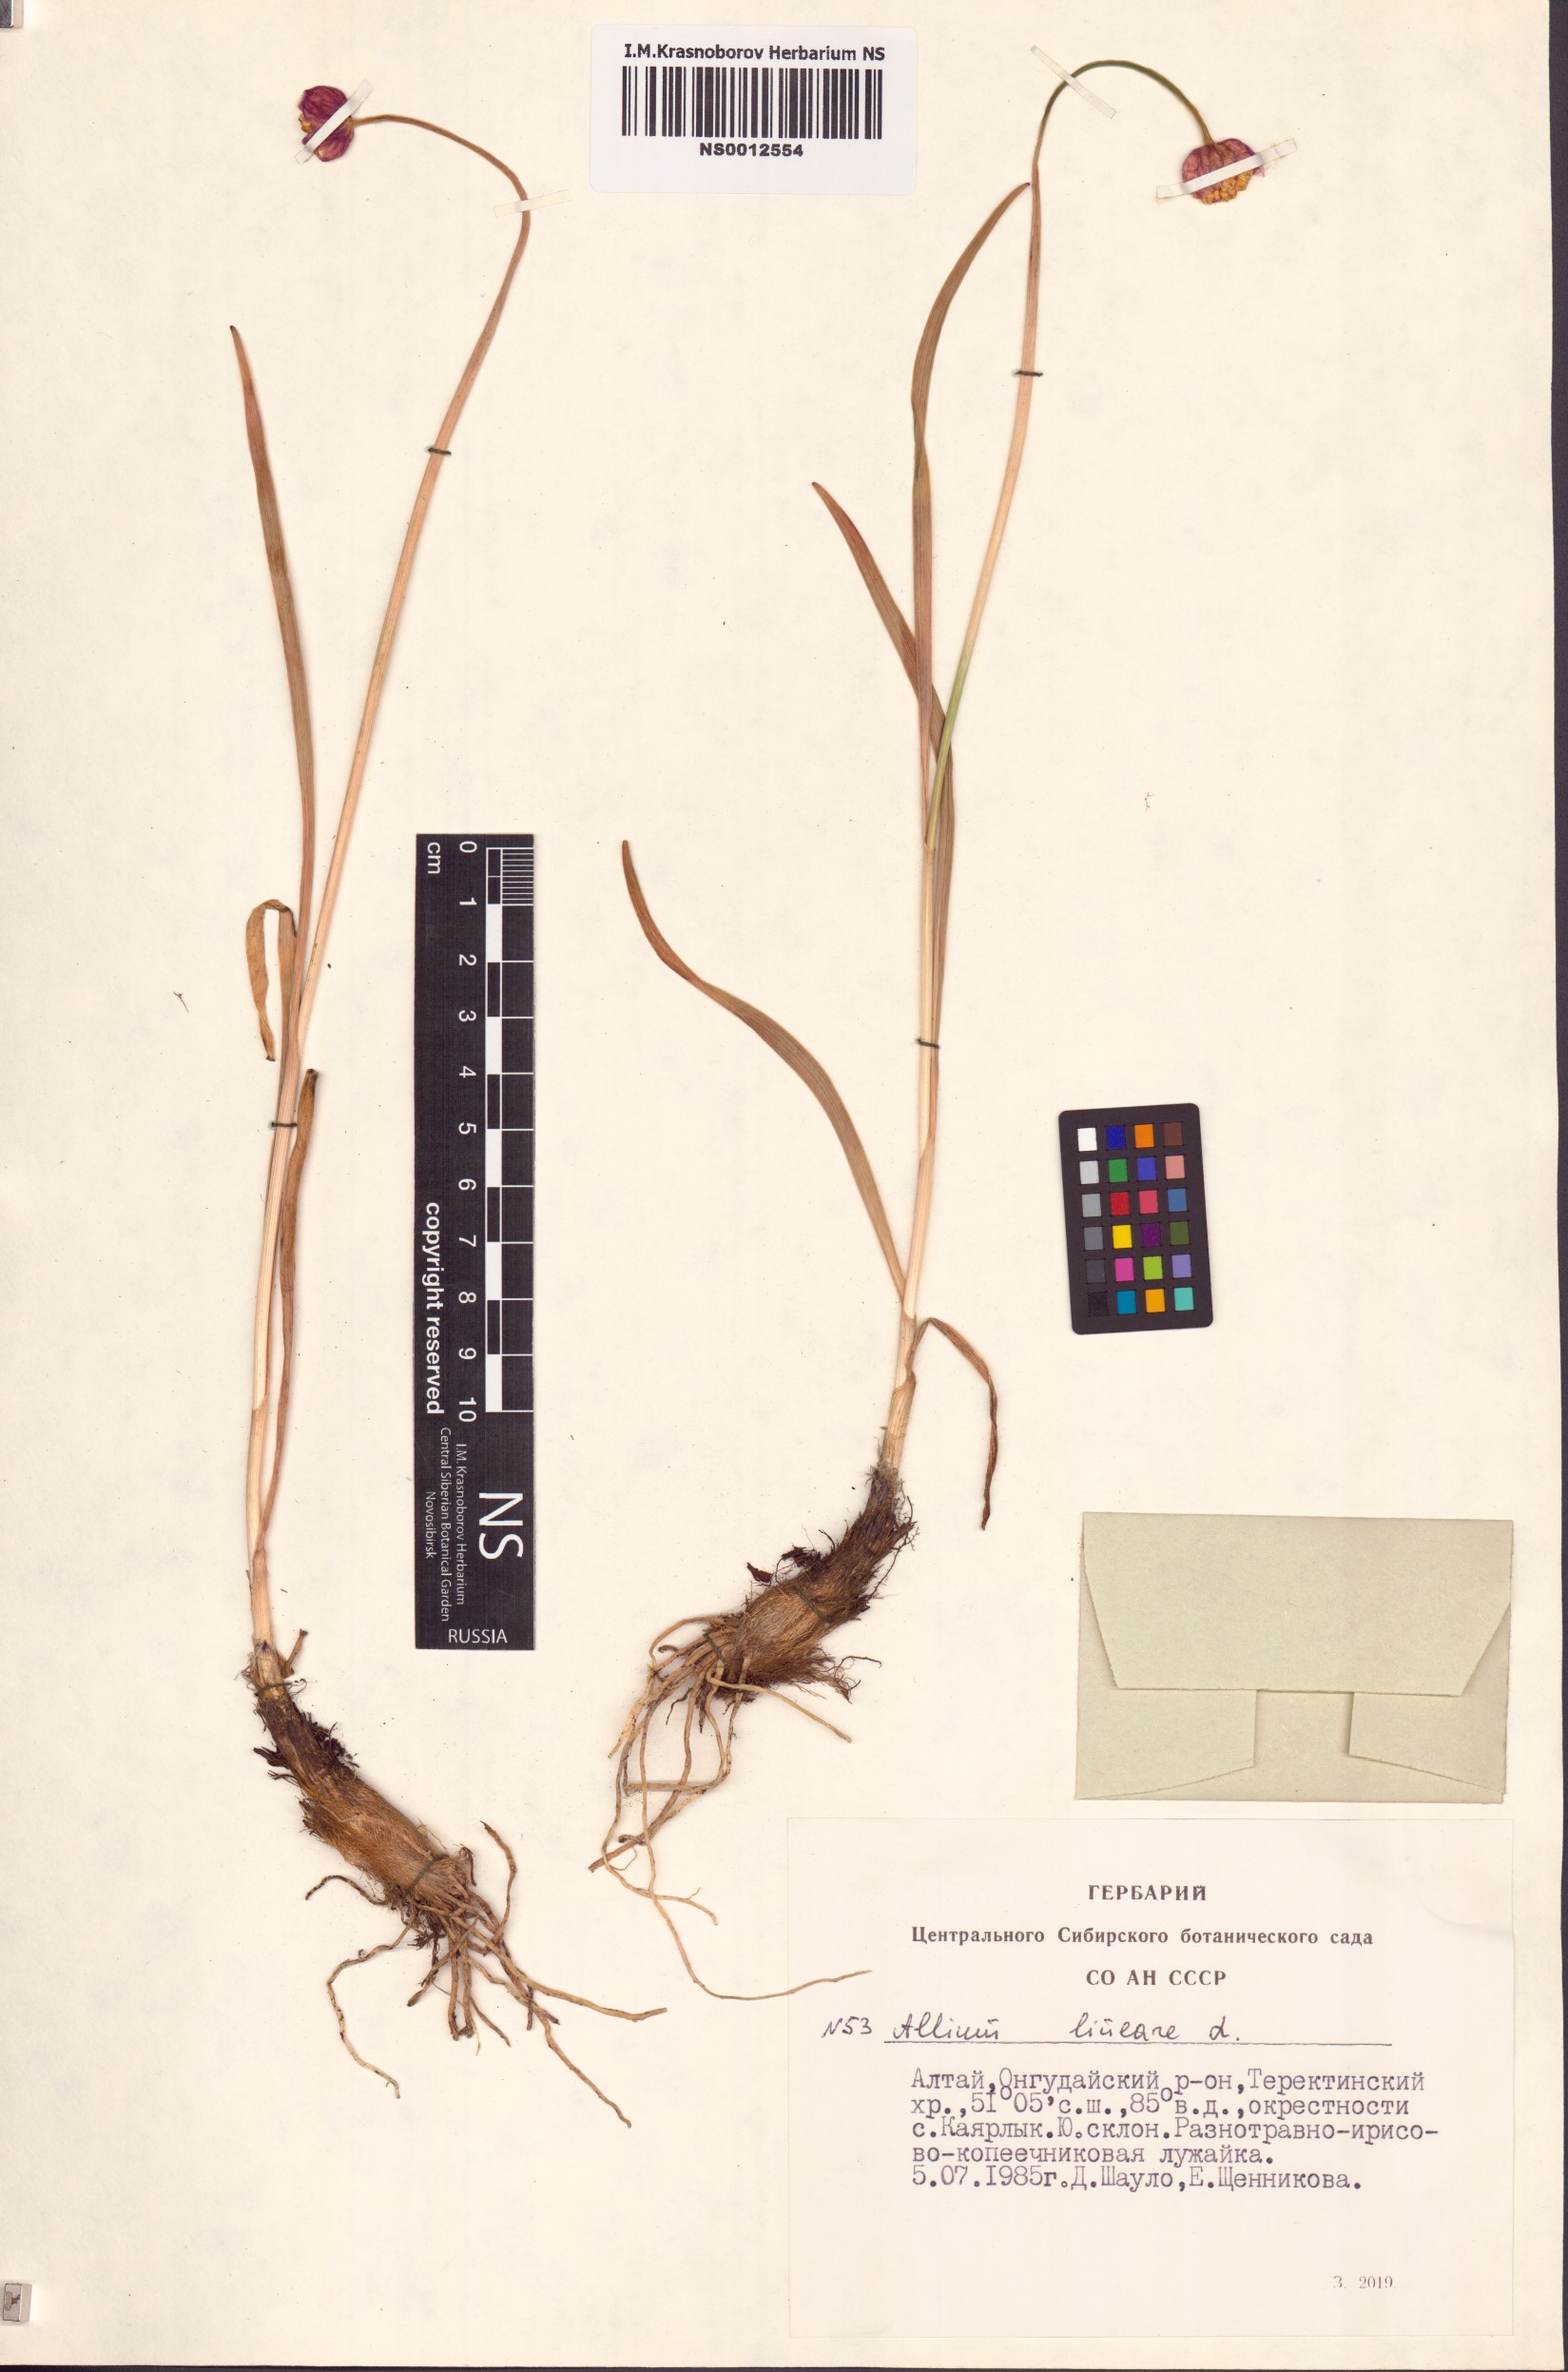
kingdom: Plantae
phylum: Tracheophyta
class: Liliopsida
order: Asparagales
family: Amaryllidaceae
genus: Allium
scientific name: Allium lineare
